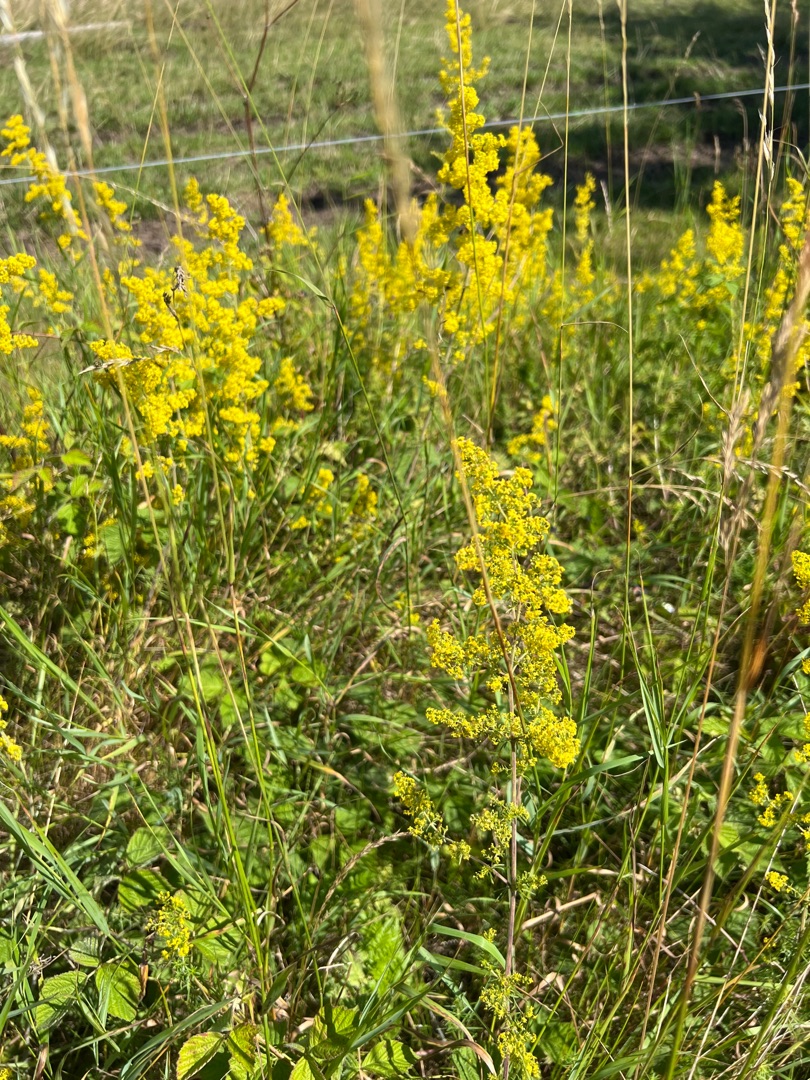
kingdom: Plantae
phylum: Tracheophyta
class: Magnoliopsida
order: Gentianales
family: Rubiaceae
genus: Galium
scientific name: Galium verum
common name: Gul snerre
